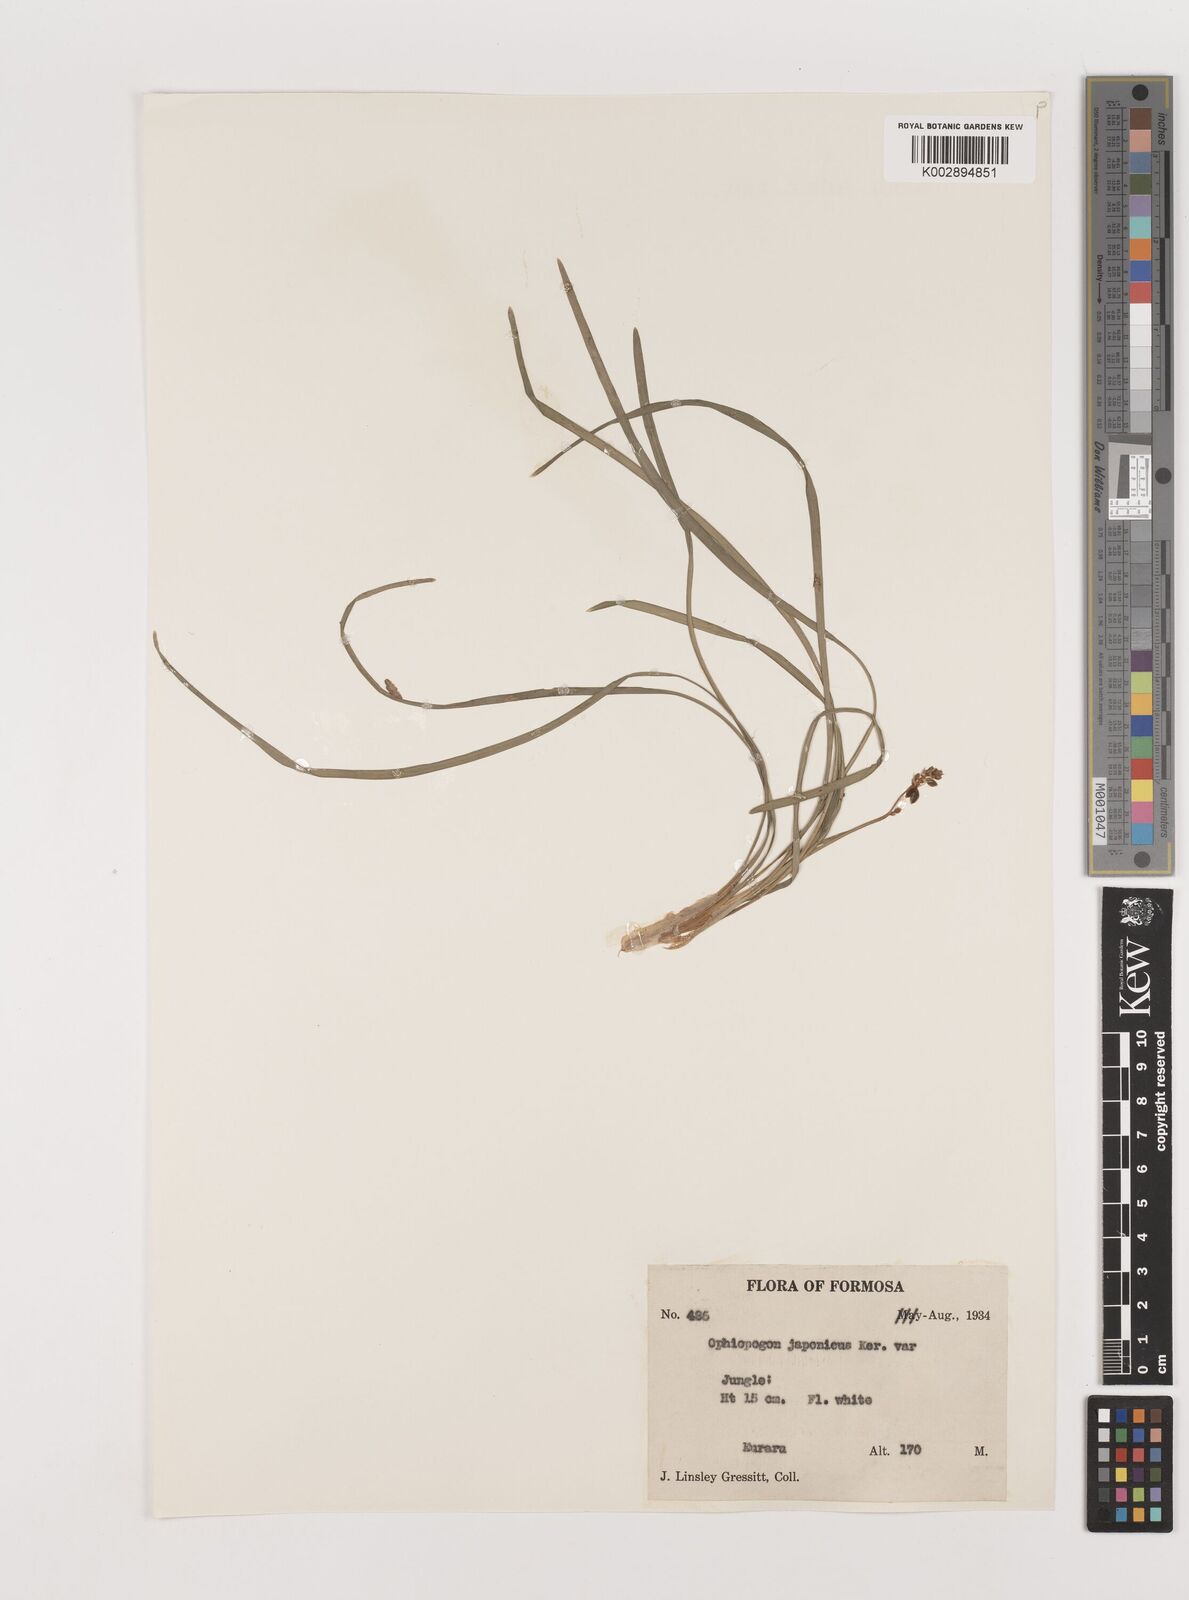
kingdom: Plantae
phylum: Tracheophyta
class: Liliopsida
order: Asparagales
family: Asparagaceae
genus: Ophiopogon
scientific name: Ophiopogon japonicus
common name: Dwarf lilyturf
